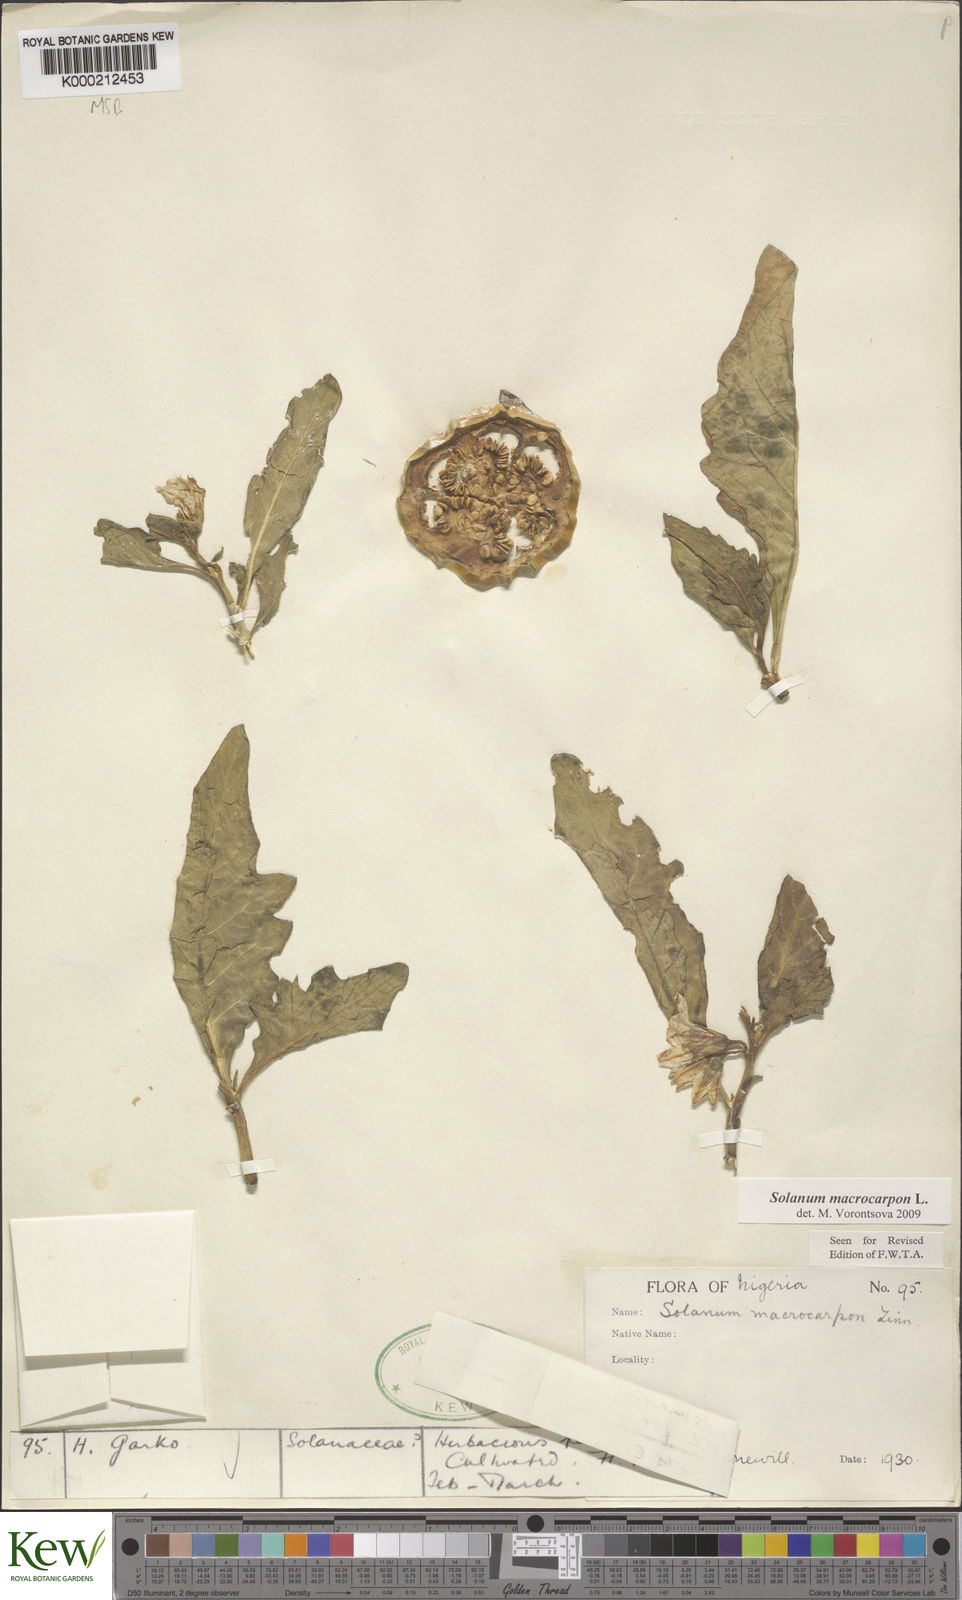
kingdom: Plantae
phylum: Tracheophyta
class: Magnoliopsida
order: Solanales
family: Solanaceae
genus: Solanum
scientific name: Solanum macrocarpon
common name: African eggplant
